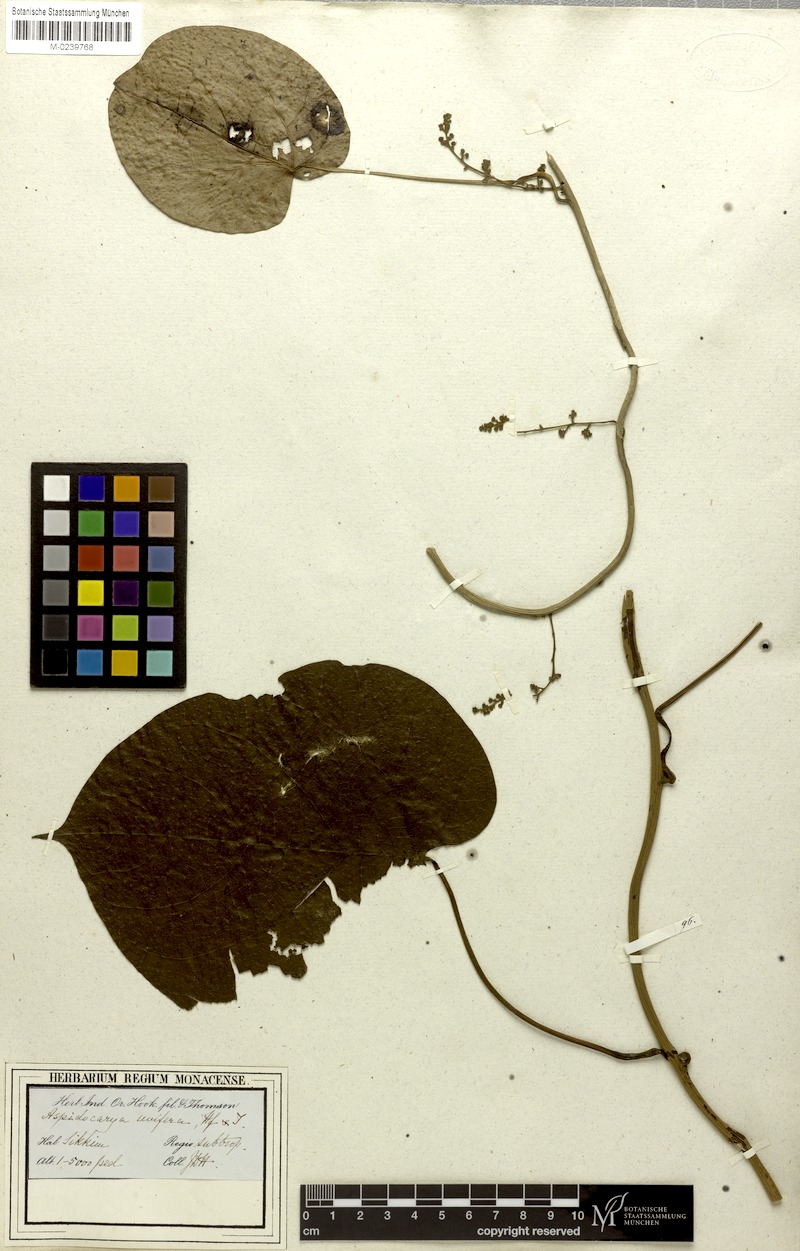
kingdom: Plantae
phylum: Tracheophyta
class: Magnoliopsida
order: Ranunculales
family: Menispermaceae
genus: Aspidocarya
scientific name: Aspidocarya uvifera
